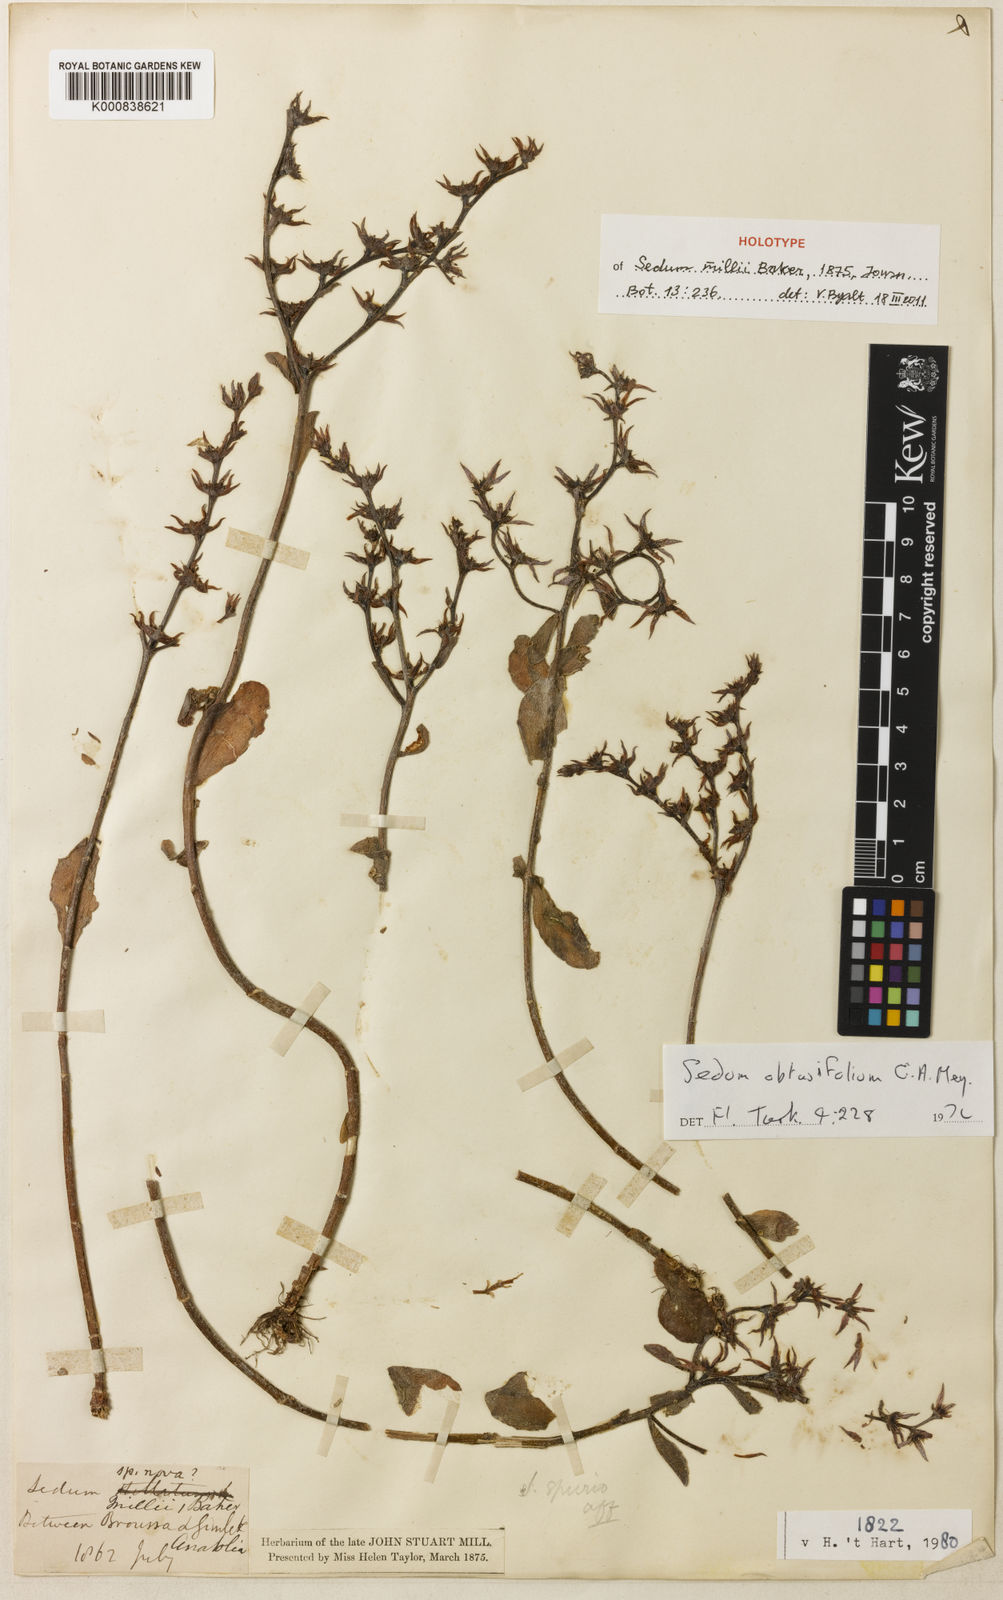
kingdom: Plantae
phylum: Tracheophyta
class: Magnoliopsida
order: Saxifragales
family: Crassulaceae
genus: Phedimus
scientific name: Phedimus obtusifolius
